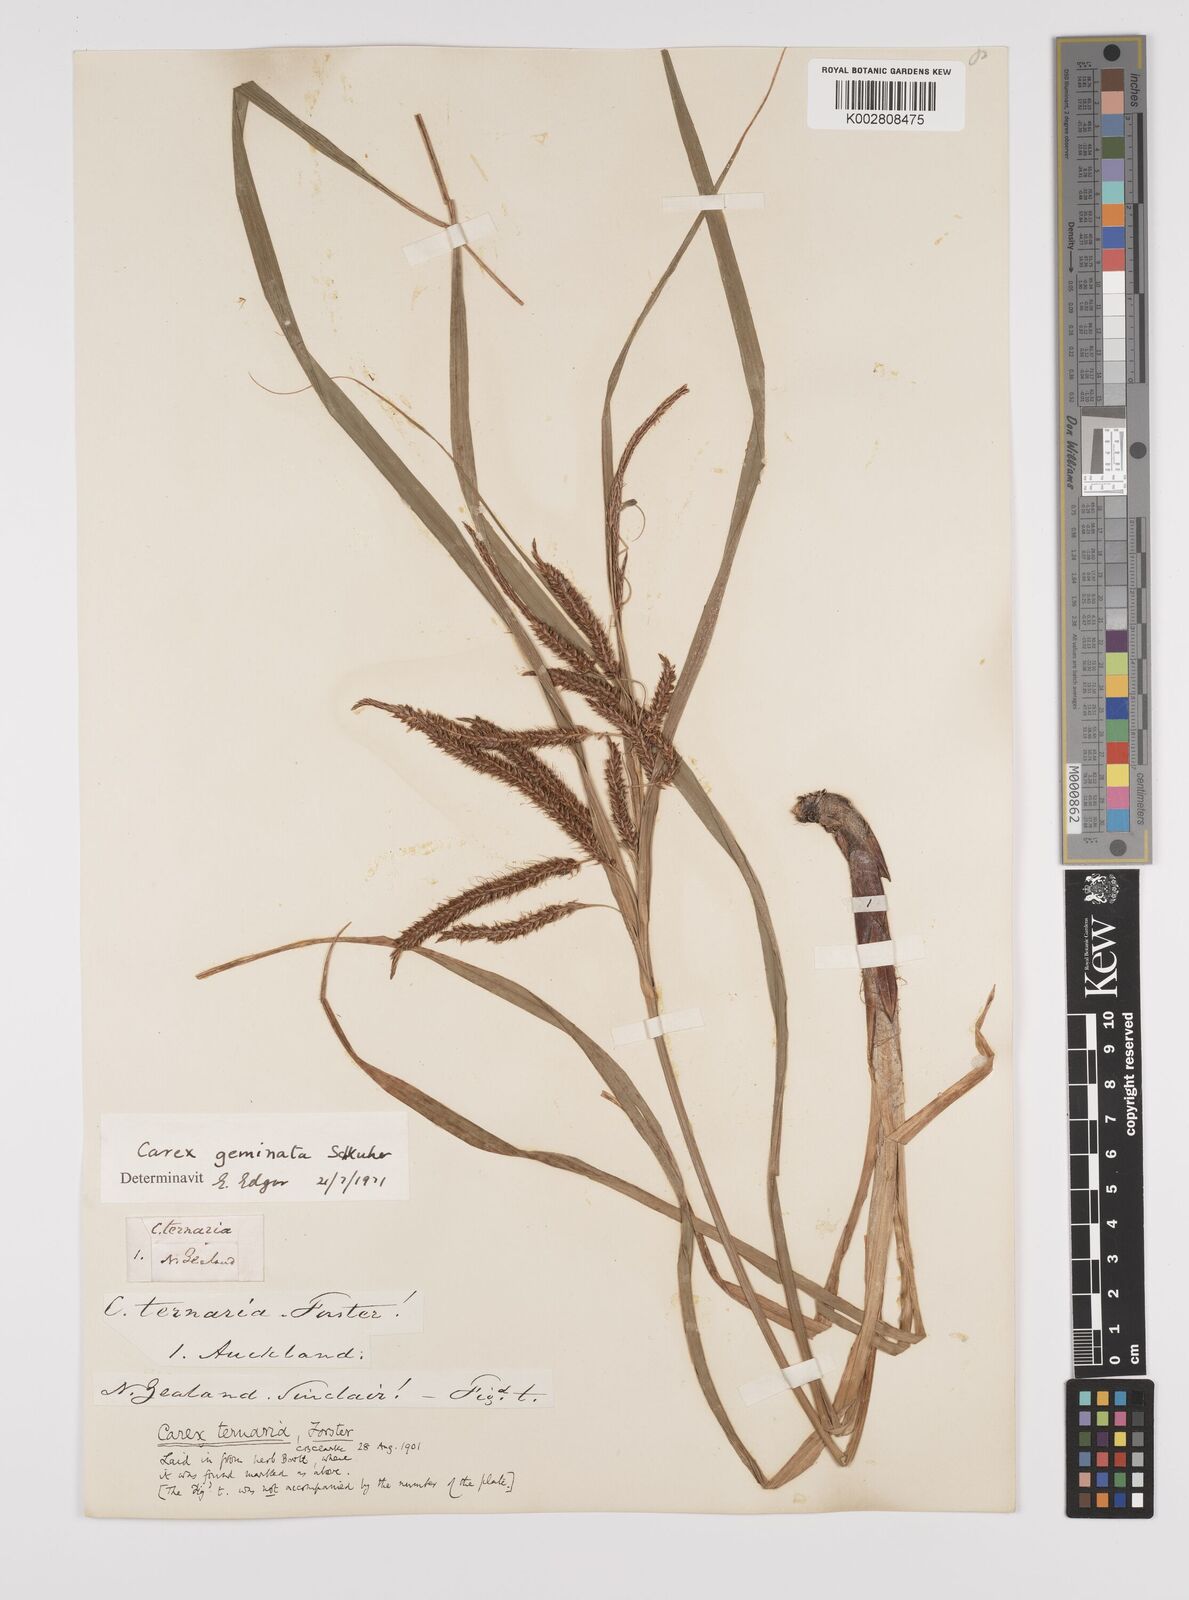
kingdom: Plantae
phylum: Tracheophyta
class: Liliopsida
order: Poales
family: Cyperaceae
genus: Carex
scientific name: Carex geminata
